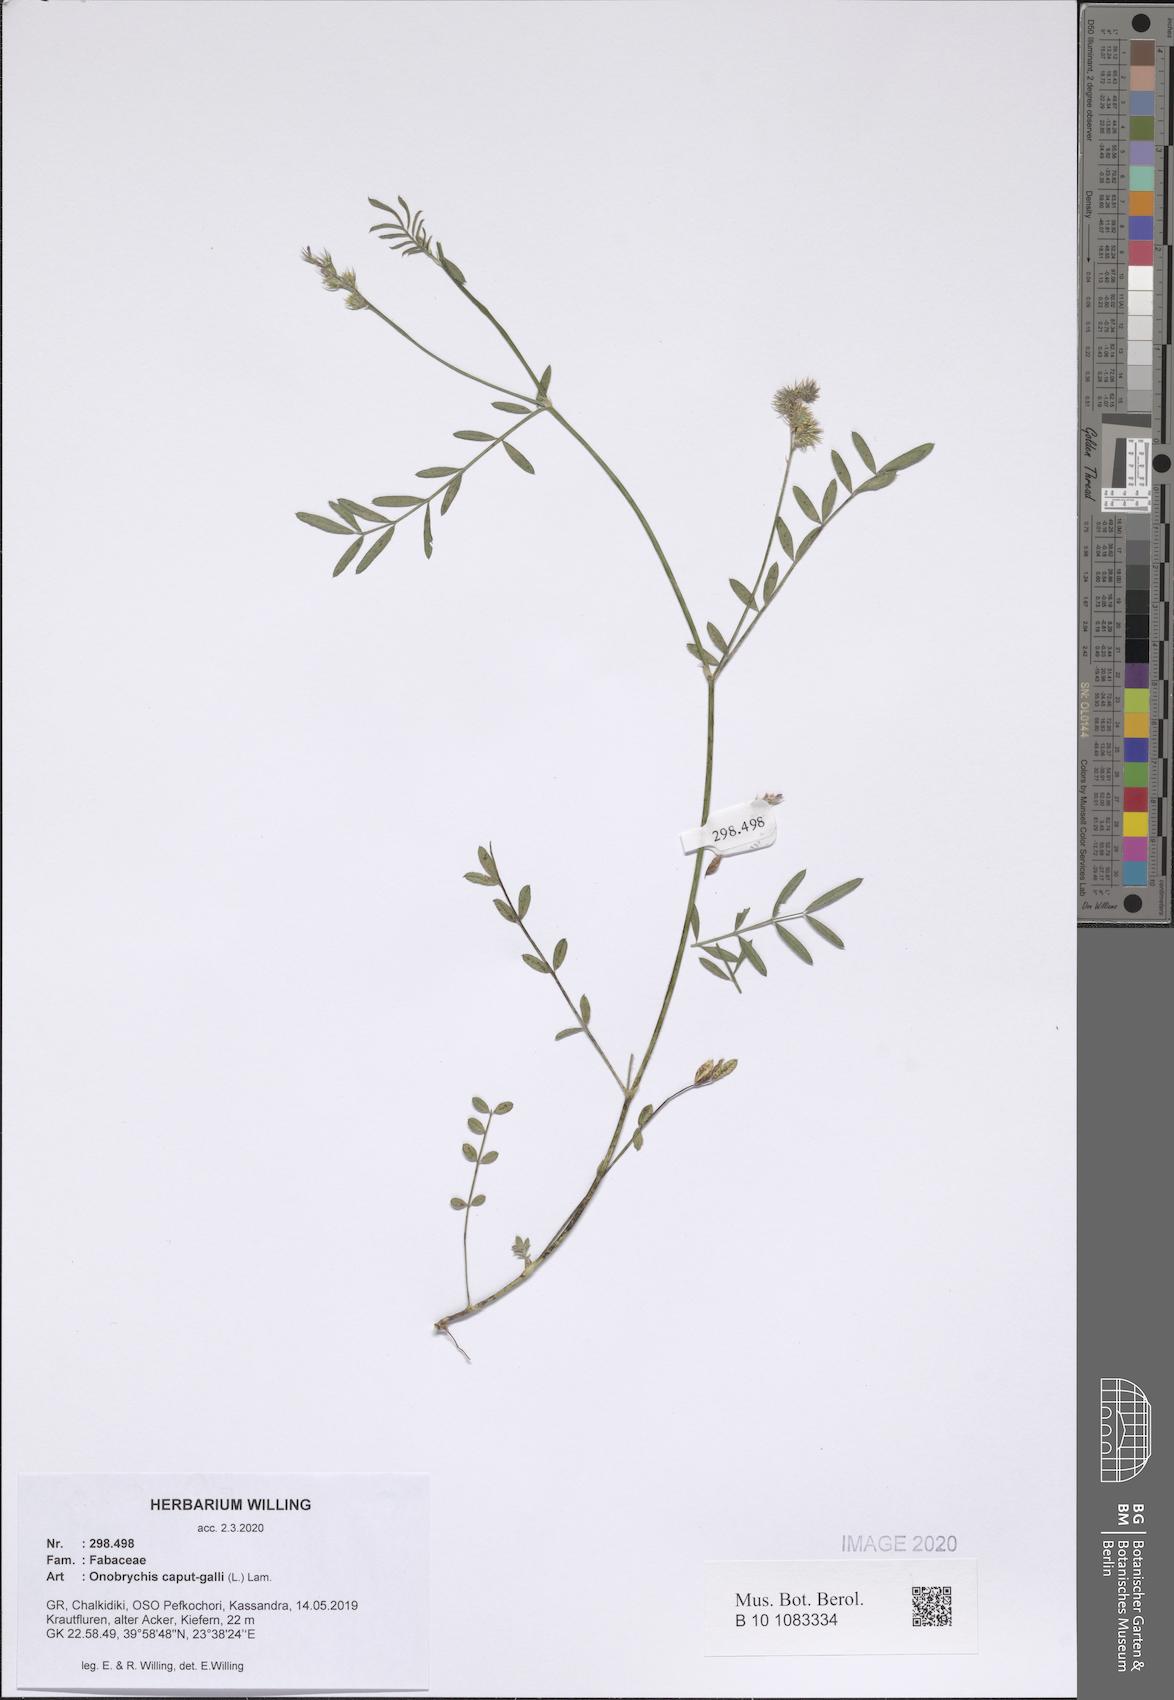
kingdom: Plantae
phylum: Tracheophyta
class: Magnoliopsida
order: Fabales
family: Fabaceae
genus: Onobrychis
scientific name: Onobrychis caput-galli
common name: Cockscomb sainfoin
